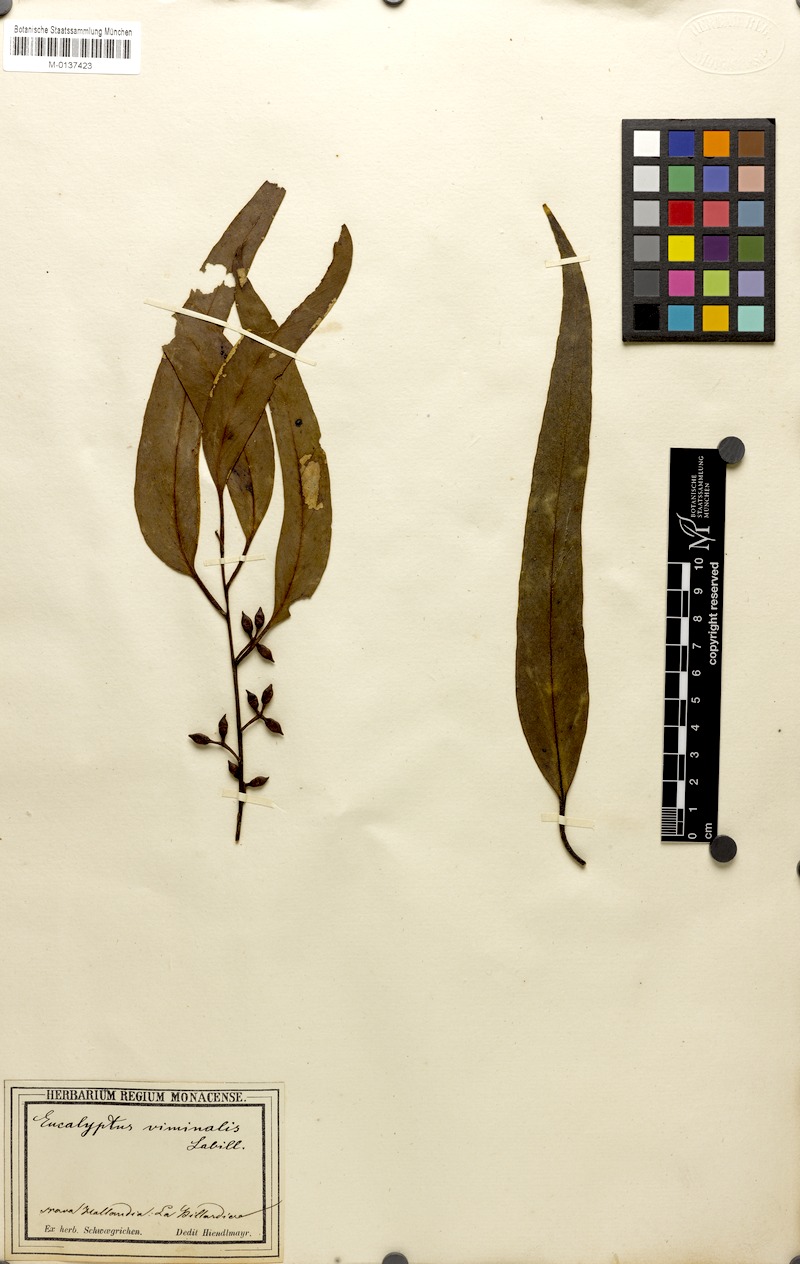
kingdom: Plantae
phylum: Tracheophyta
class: Magnoliopsida
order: Myrtales
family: Myrtaceae
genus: Eucalyptus
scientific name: Eucalyptus viminalis
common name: Manna gum
